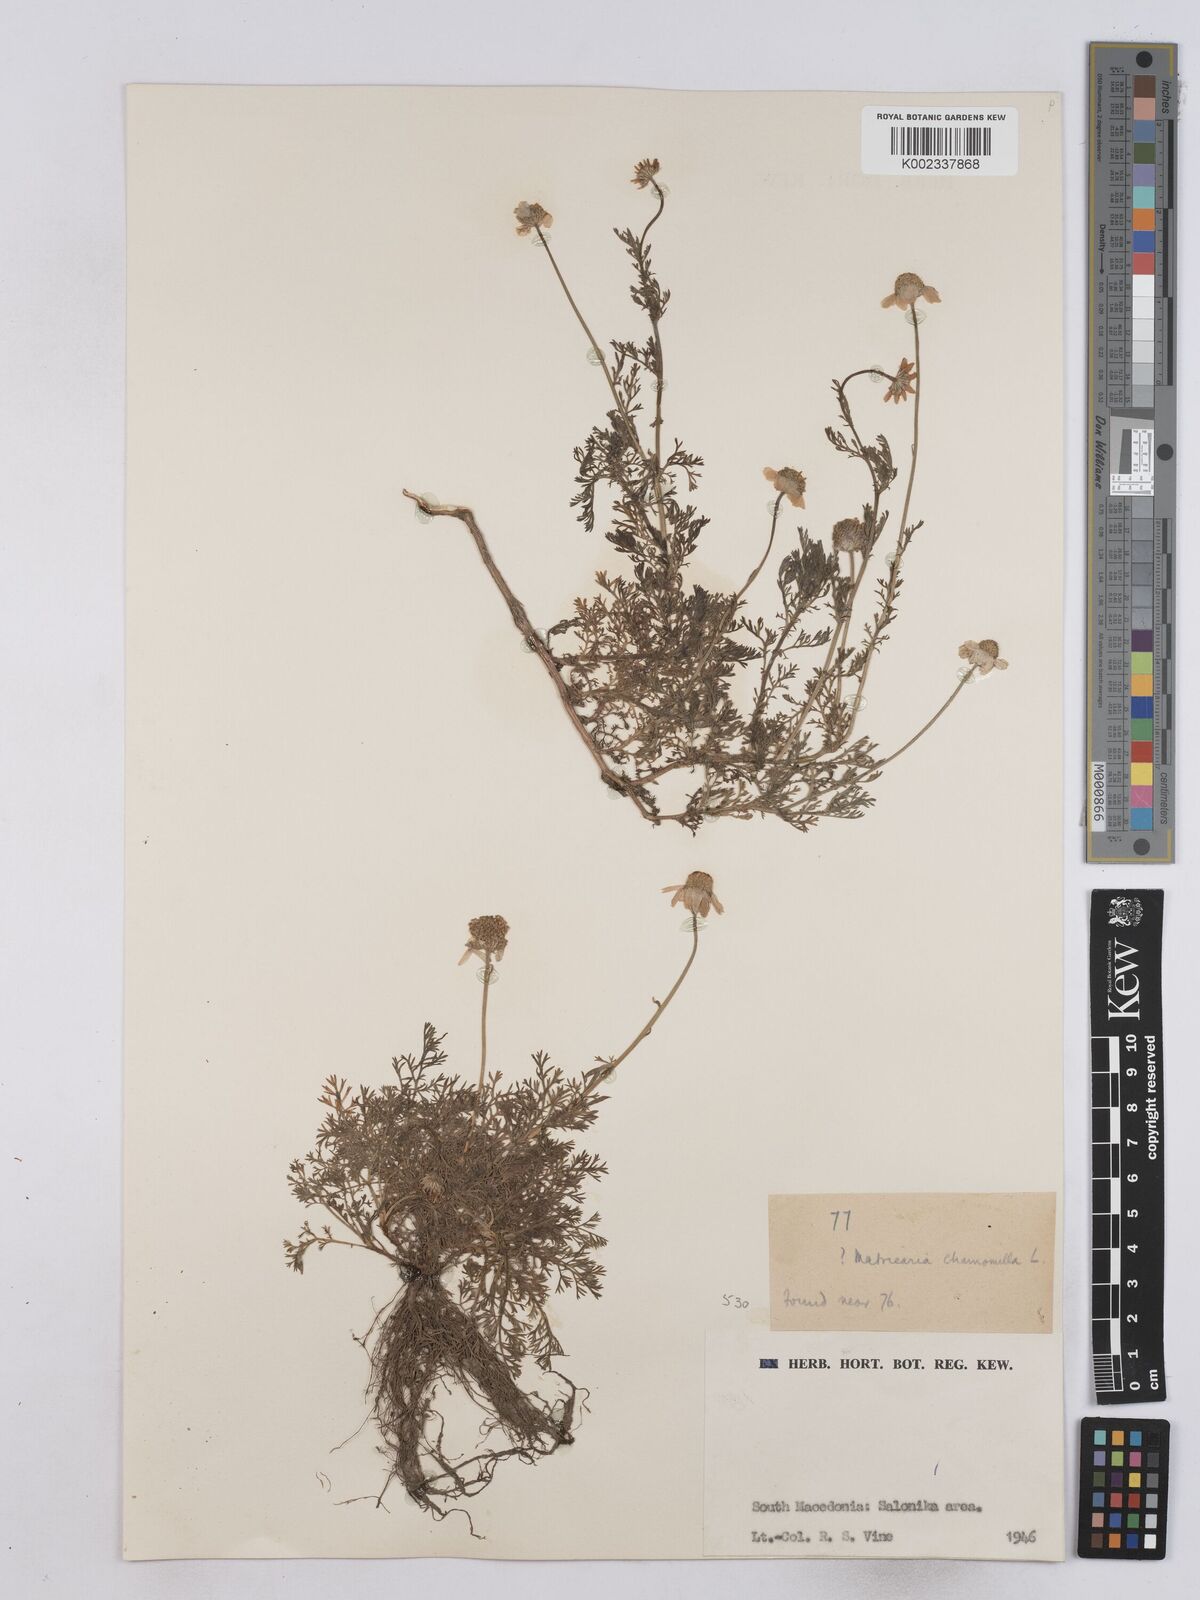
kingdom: Plantae
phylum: Tracheophyta
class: Magnoliopsida
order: Asterales
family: Asteraceae
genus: Matricaria
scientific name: Matricaria chamomilla
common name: Scented mayweed
